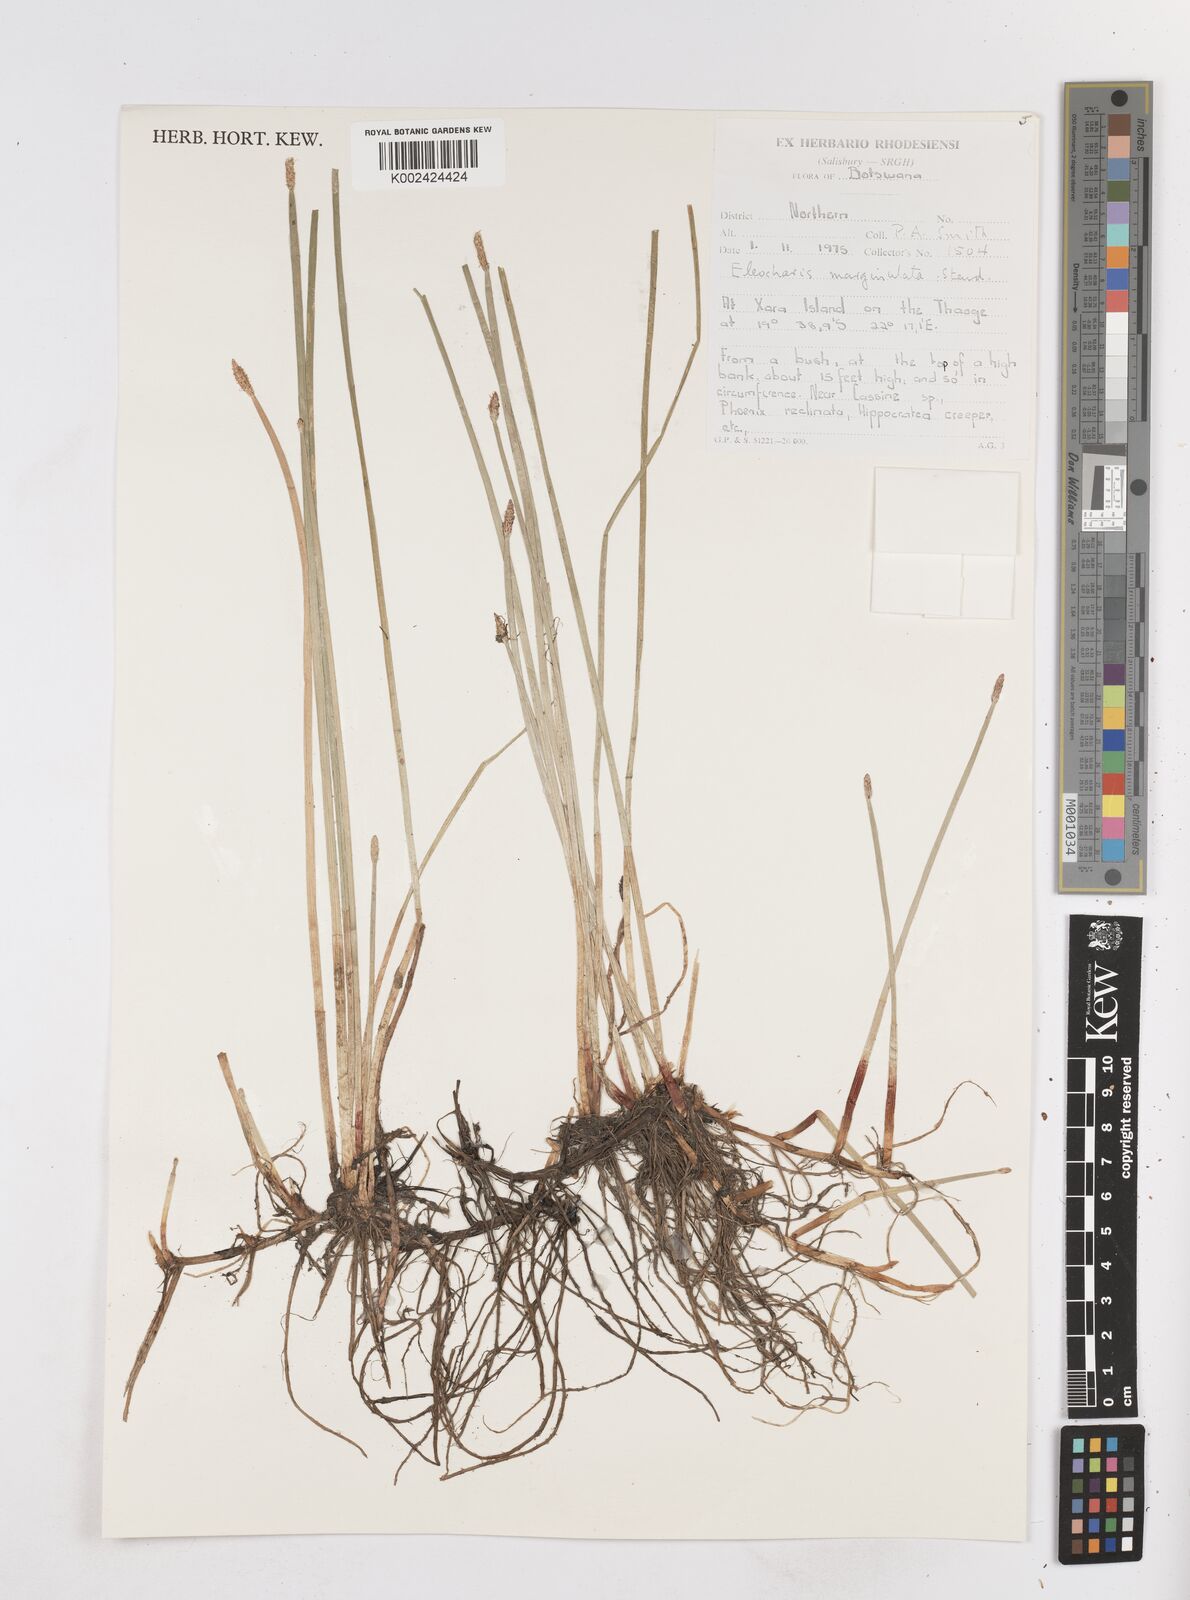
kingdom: Plantae
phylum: Tracheophyta
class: Liliopsida
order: Poales
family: Cyperaceae
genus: Eleocharis
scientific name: Eleocharis marginulata
